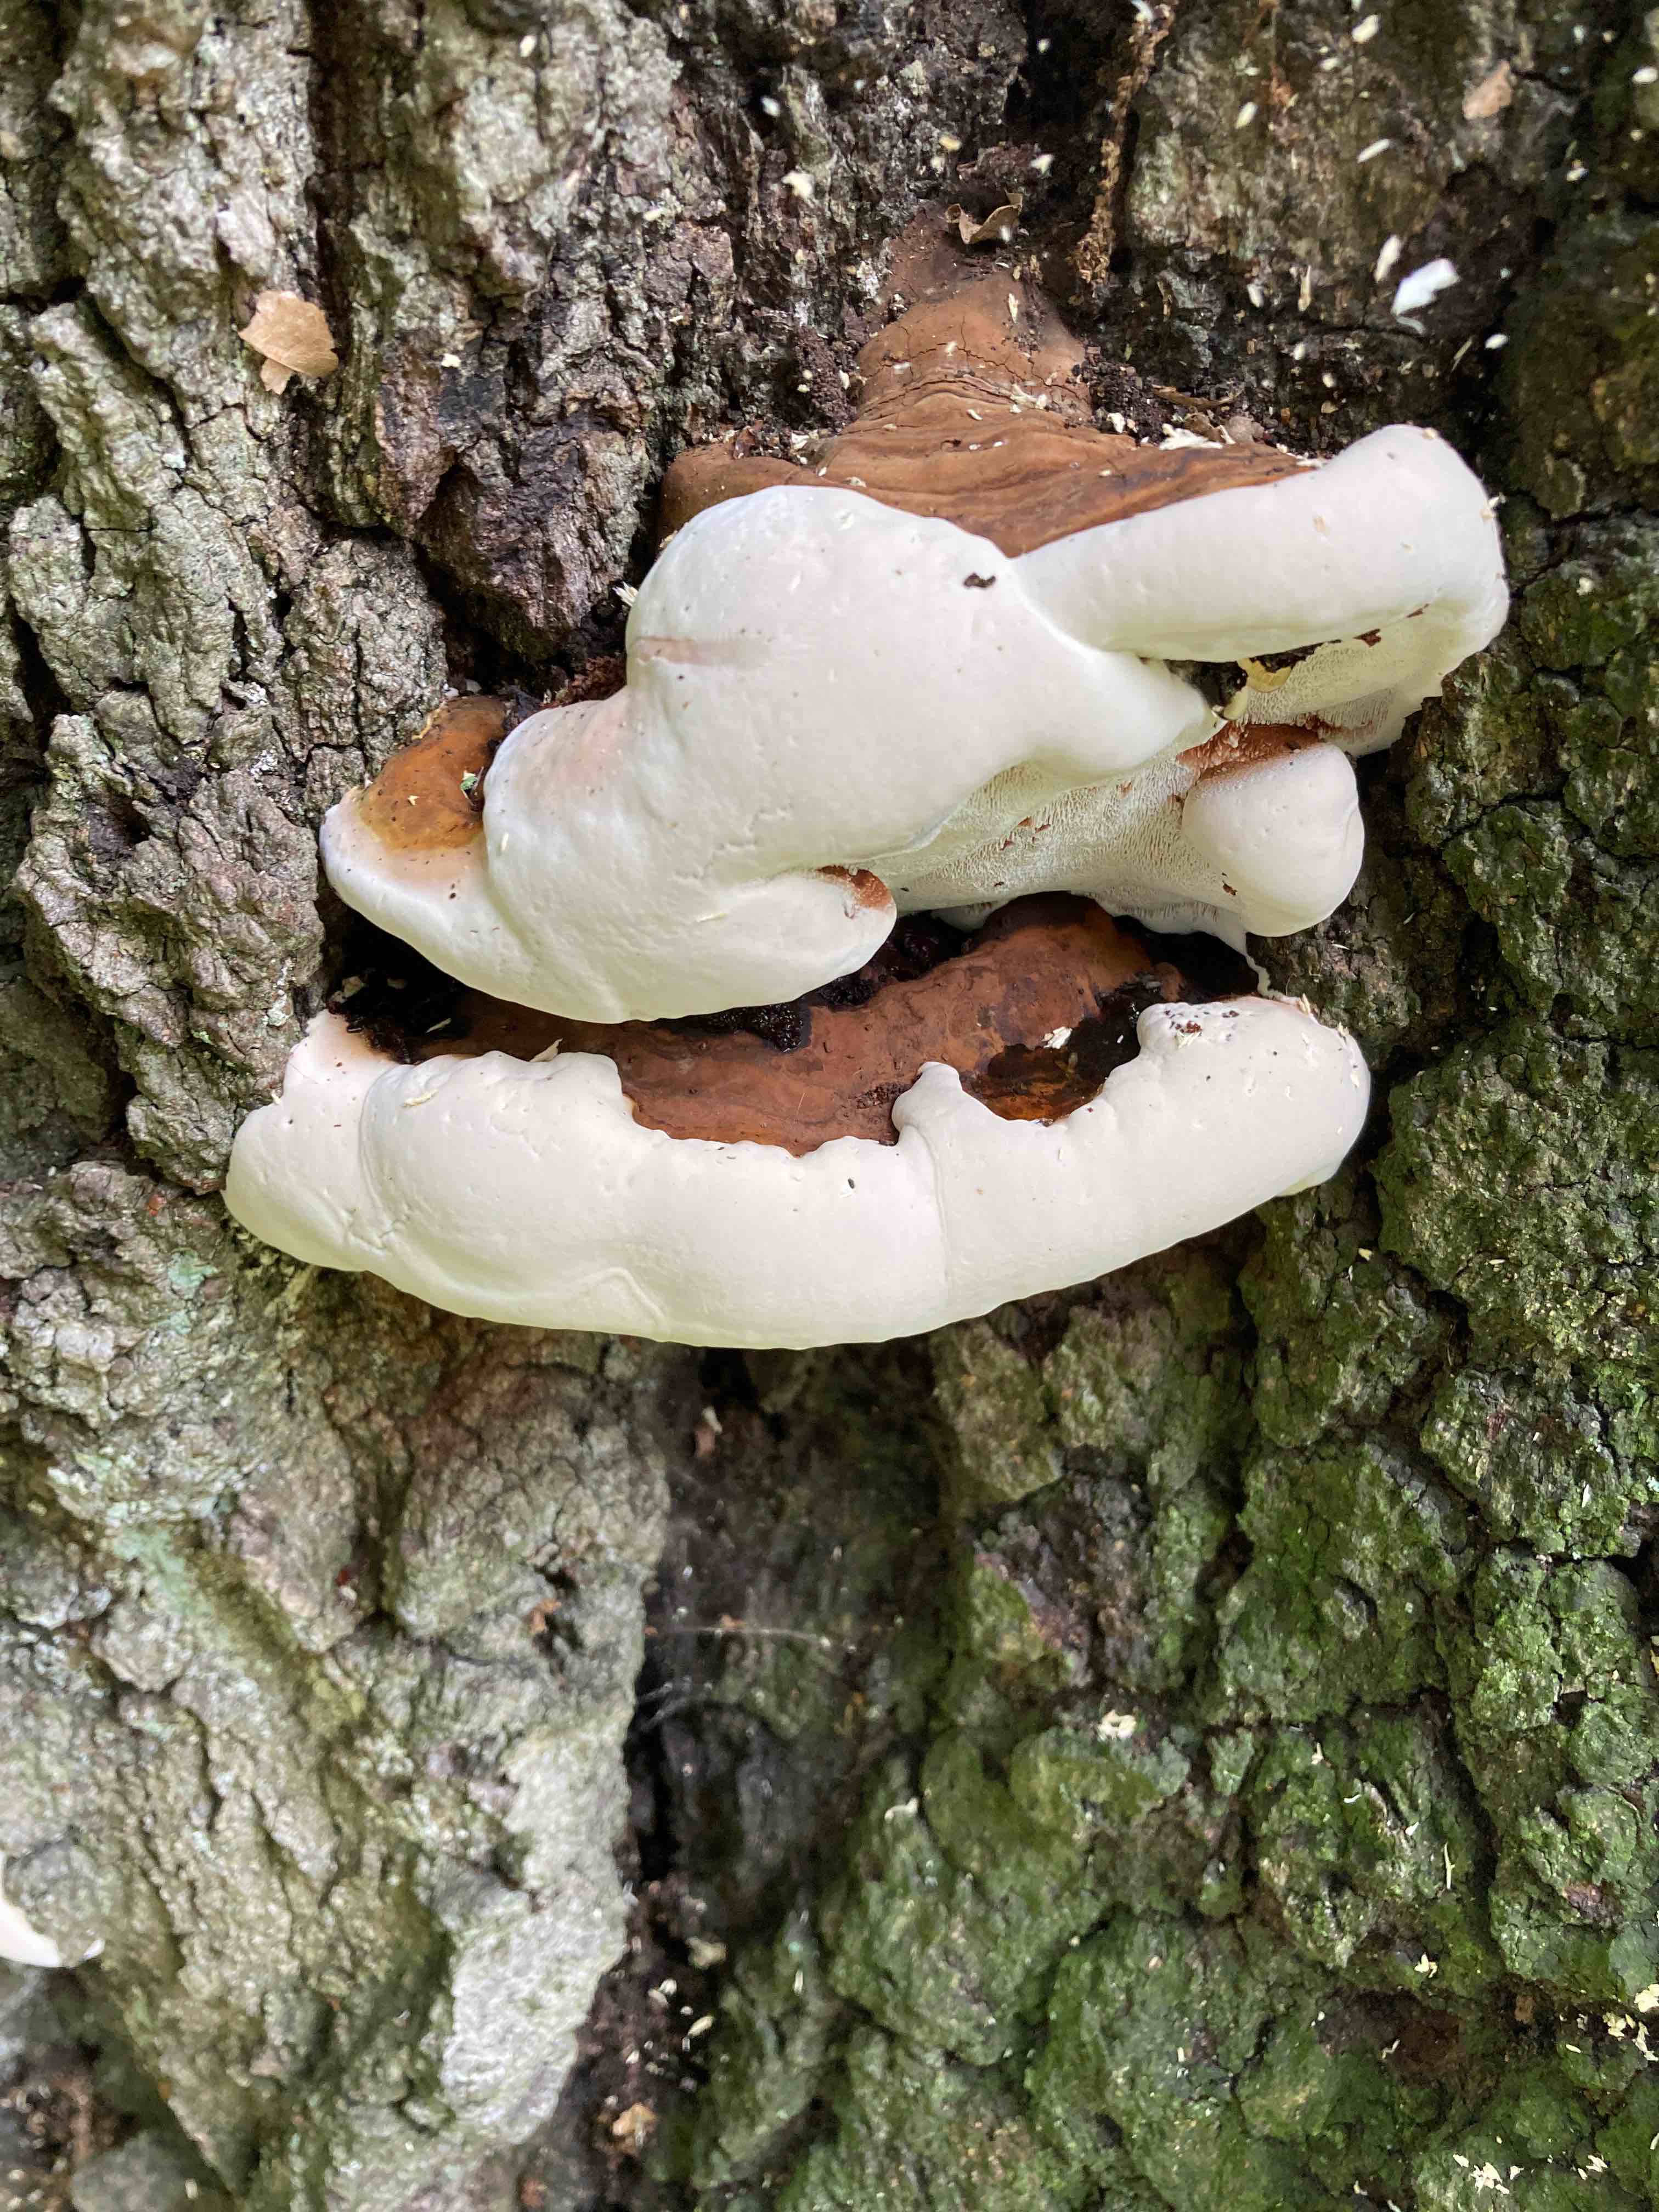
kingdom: Fungi
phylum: Basidiomycota
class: Agaricomycetes
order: Polyporales
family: Polyporaceae
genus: Ganoderma
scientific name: Ganoderma adspersum
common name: grov lakporesvamp
